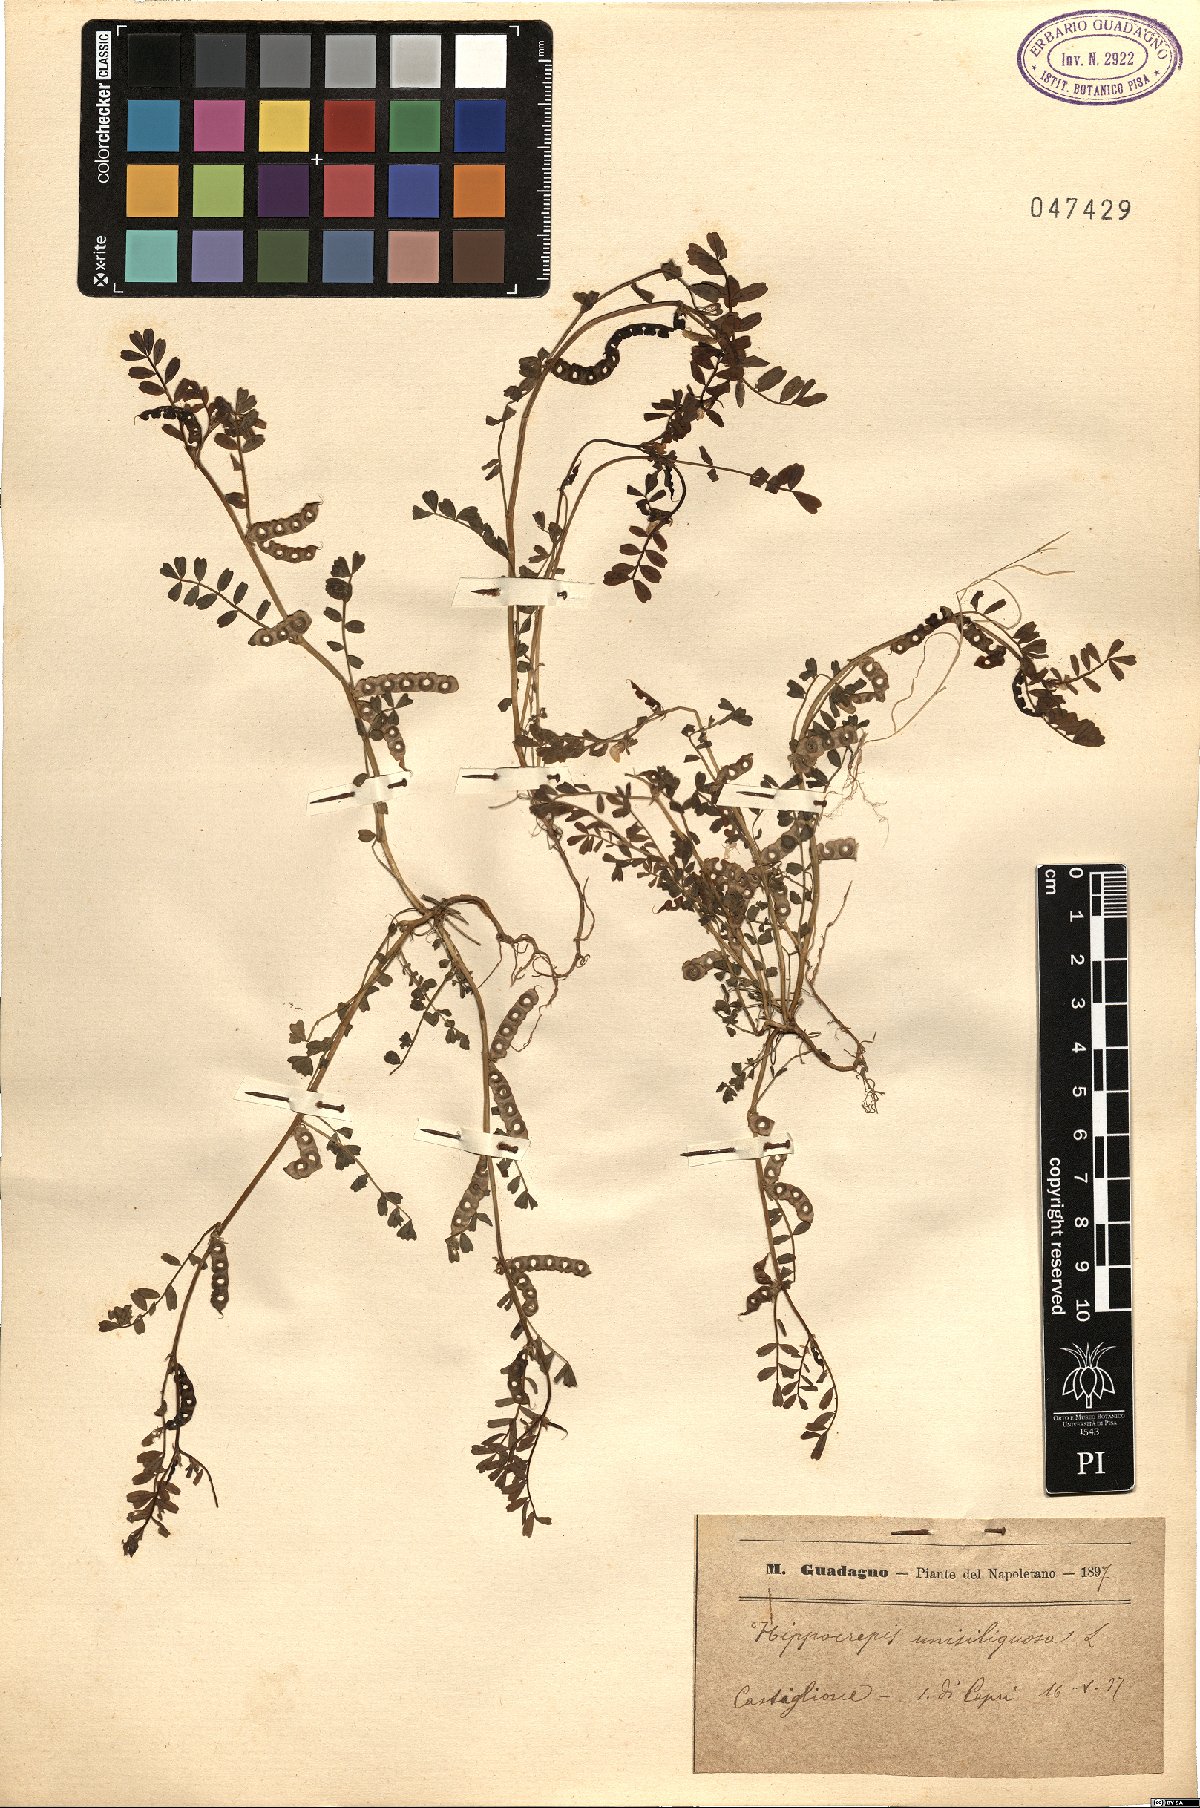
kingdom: Plantae
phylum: Tracheophyta
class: Magnoliopsida
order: Fabales
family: Fabaceae
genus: Hippocrepis
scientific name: Hippocrepis unisiliquosa
